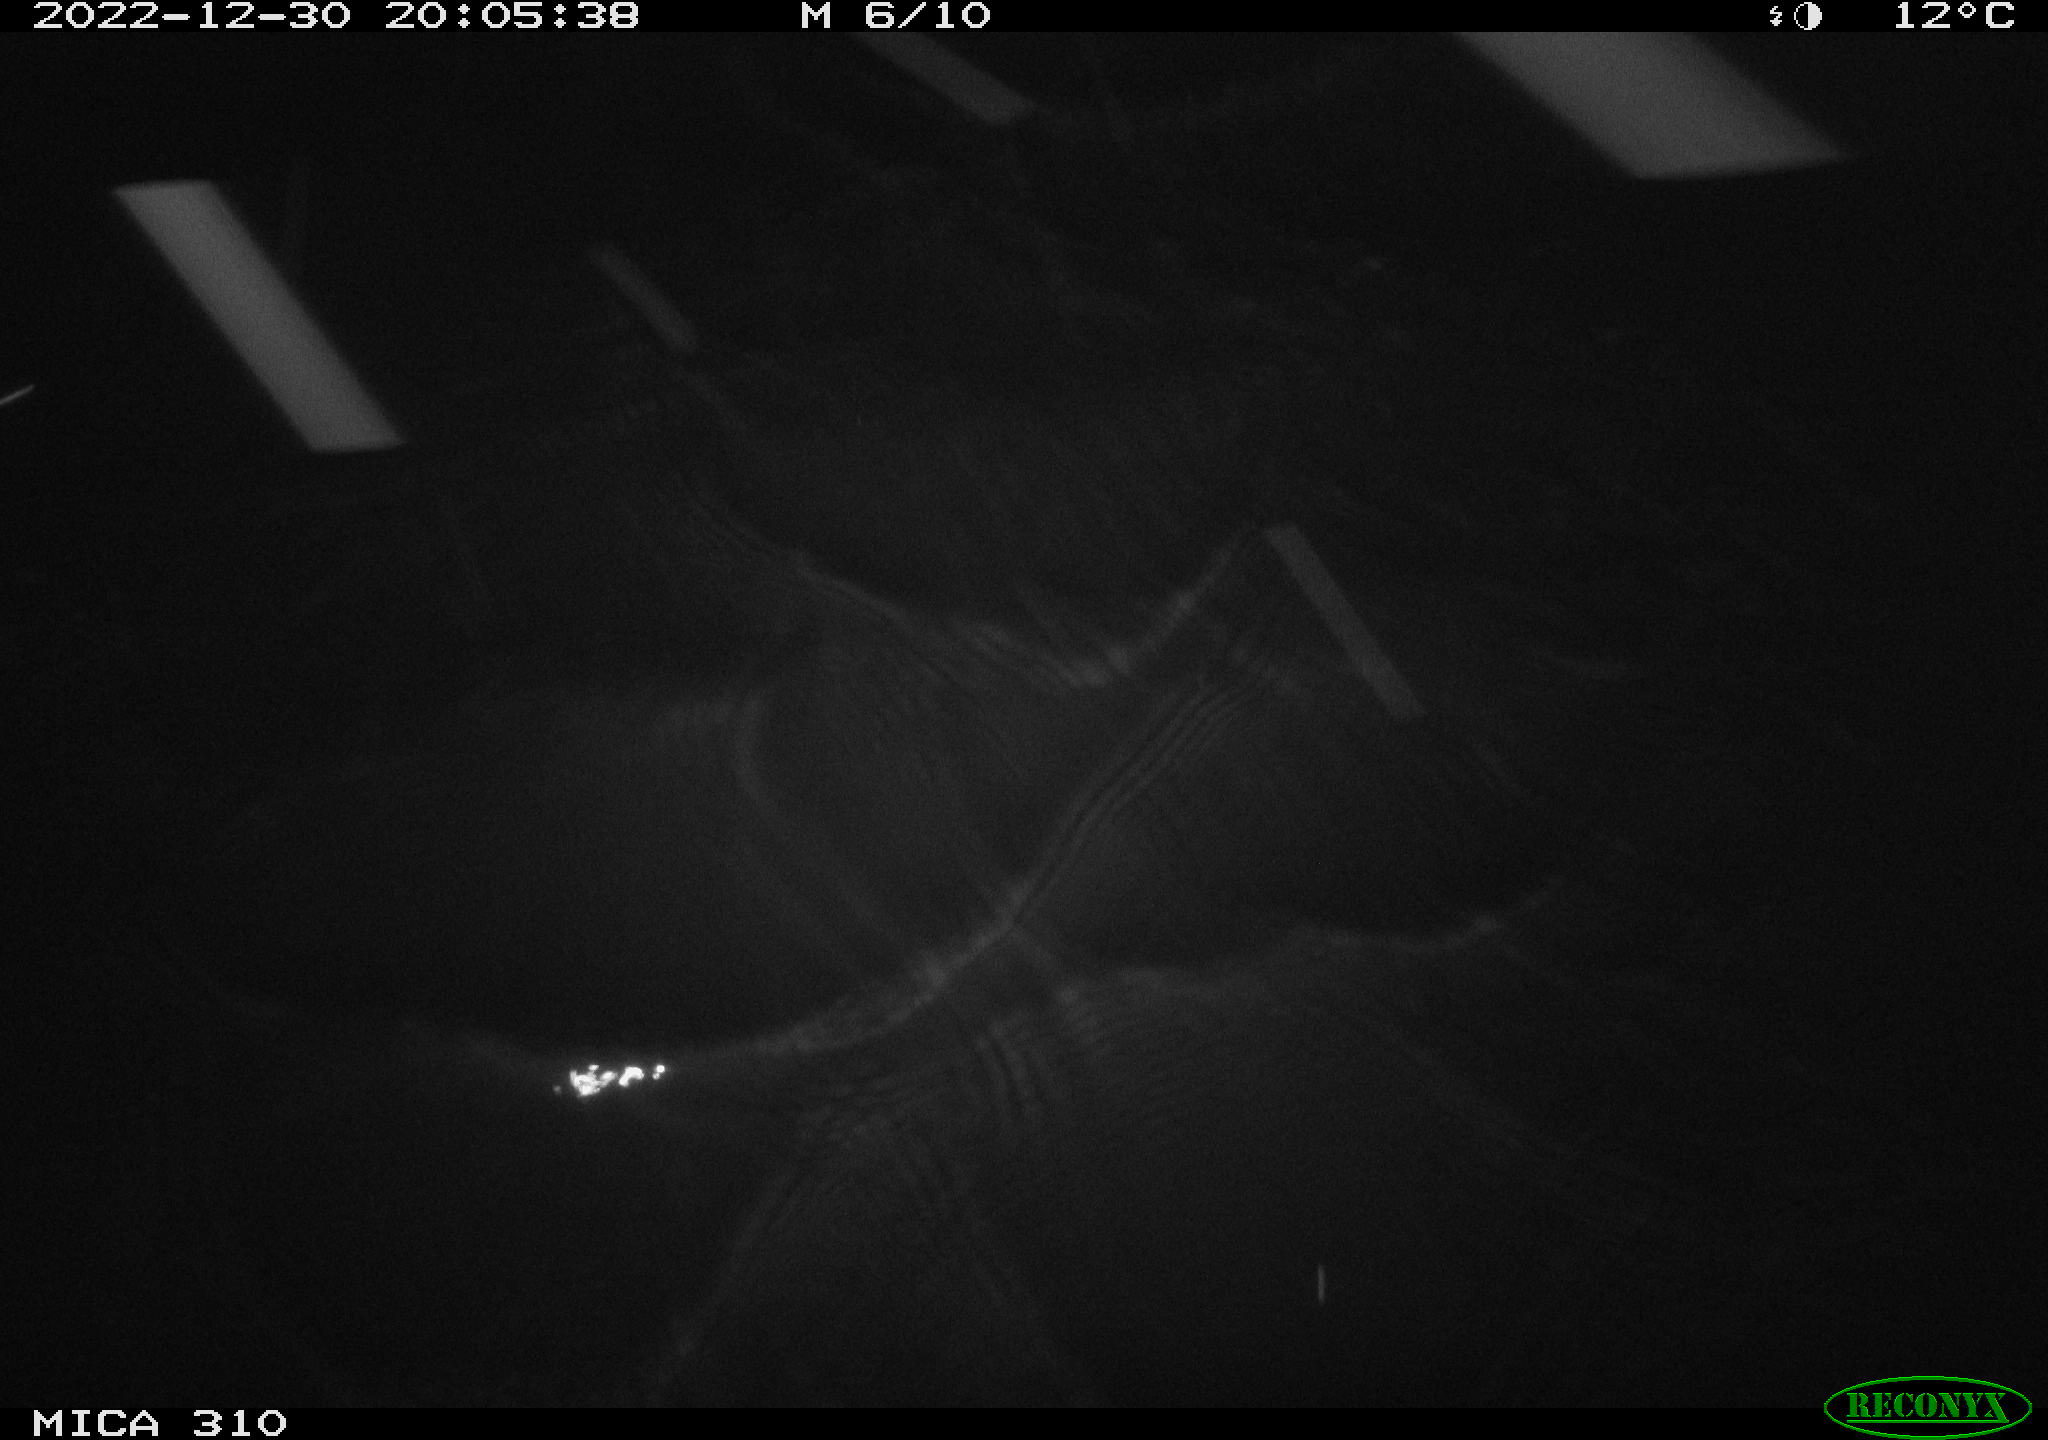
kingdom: Animalia
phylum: Chordata
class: Mammalia
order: Rodentia
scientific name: Rodentia
